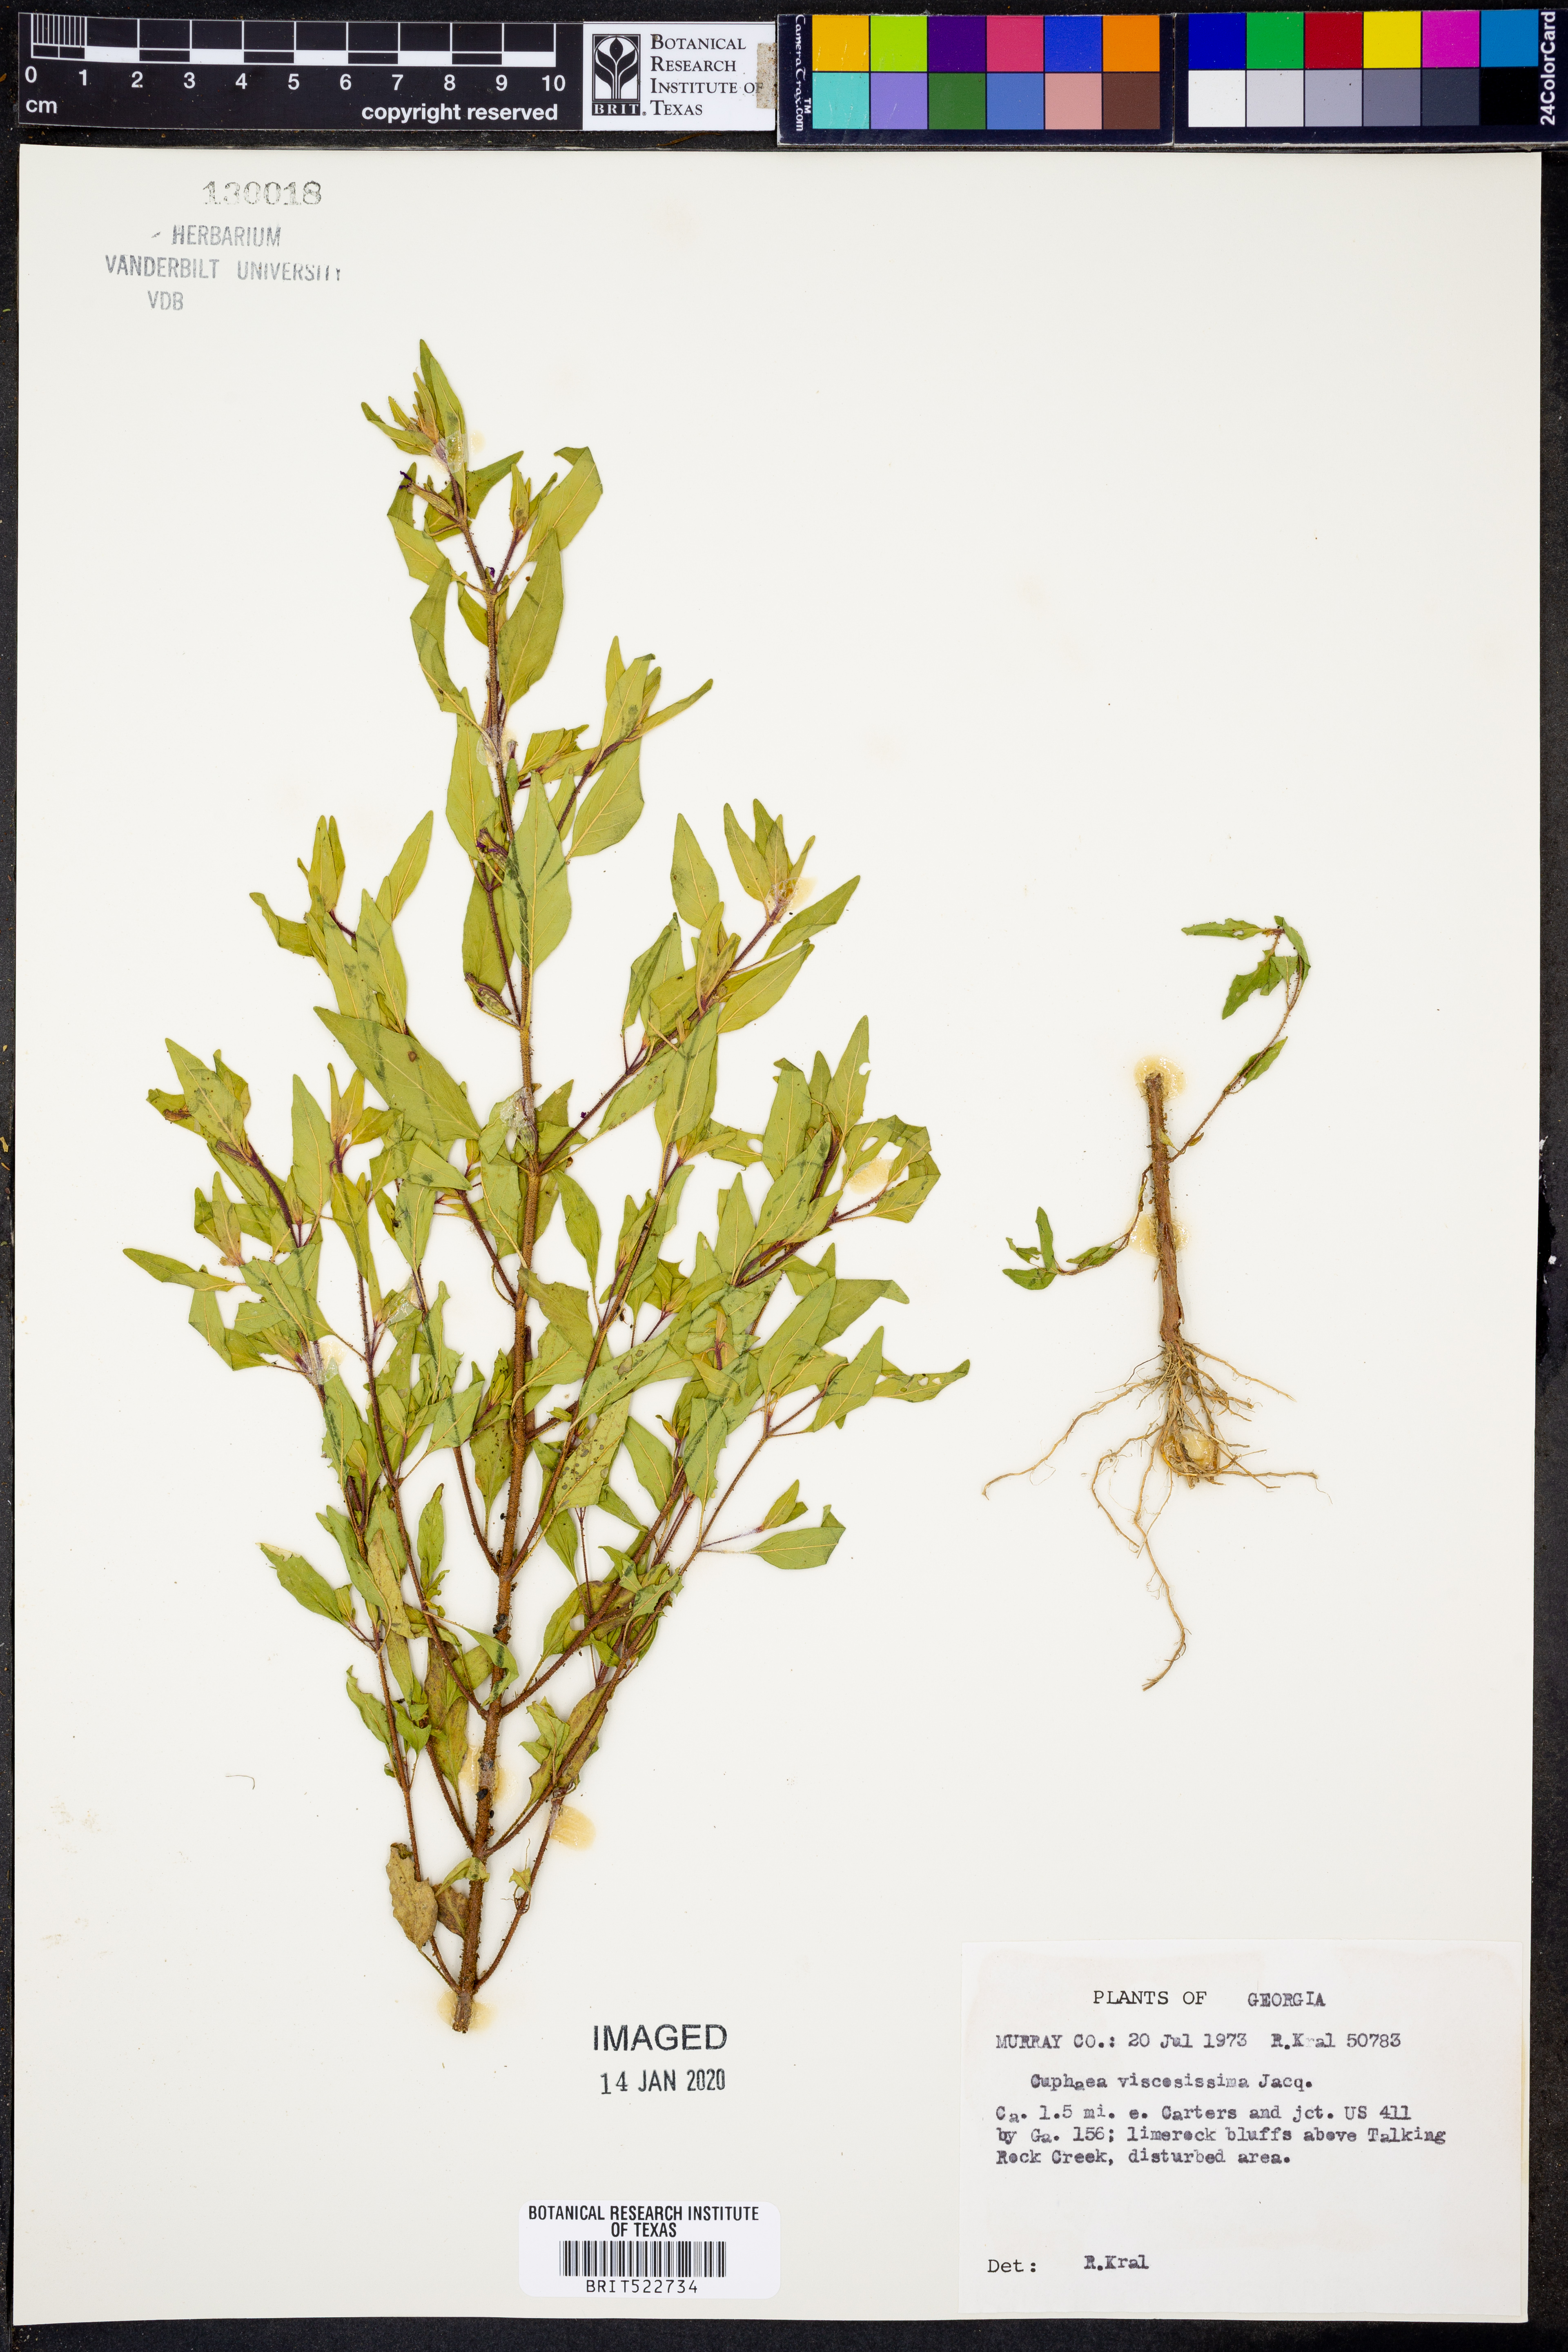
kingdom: Plantae
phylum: Tracheophyta
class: Magnoliopsida
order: Myrtales
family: Lythraceae
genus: Cuphea
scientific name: Cuphea viscosissima
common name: Clammy cuphea
